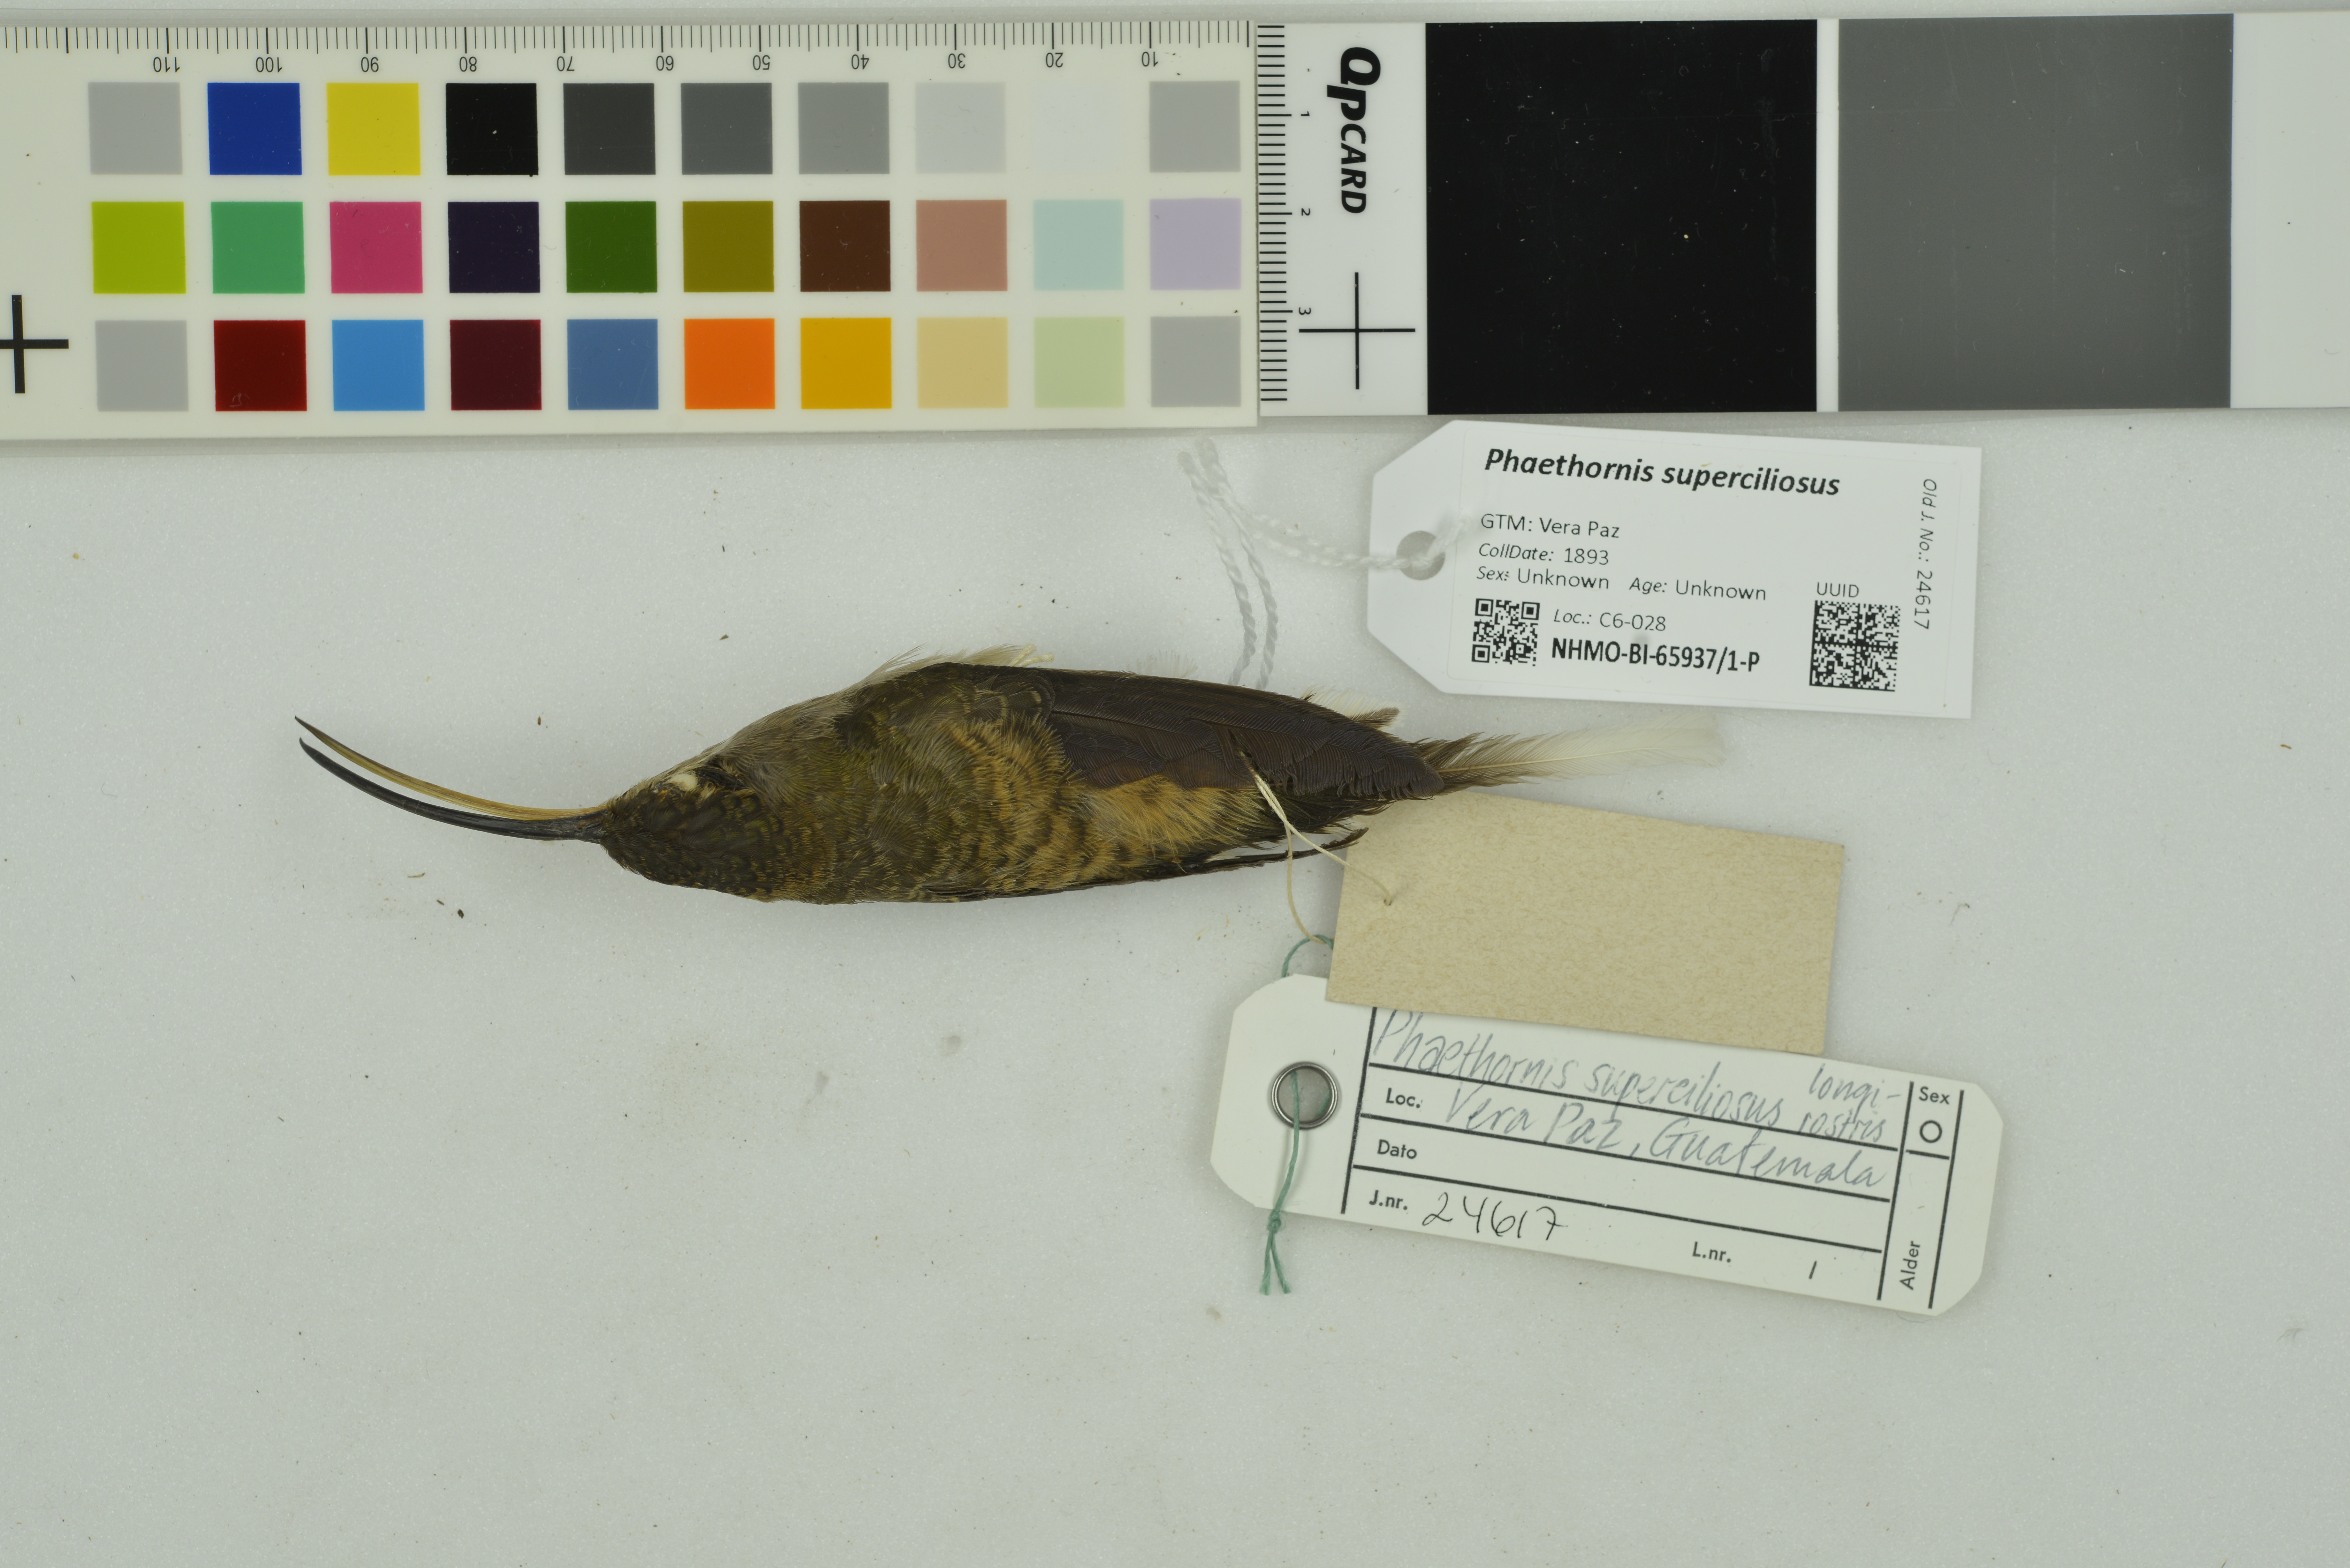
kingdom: Animalia
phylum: Chordata
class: Aves
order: Apodiformes
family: Trochilidae
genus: Phaethornis
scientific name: Phaethornis superciliosus
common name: Long-tailed hermit
